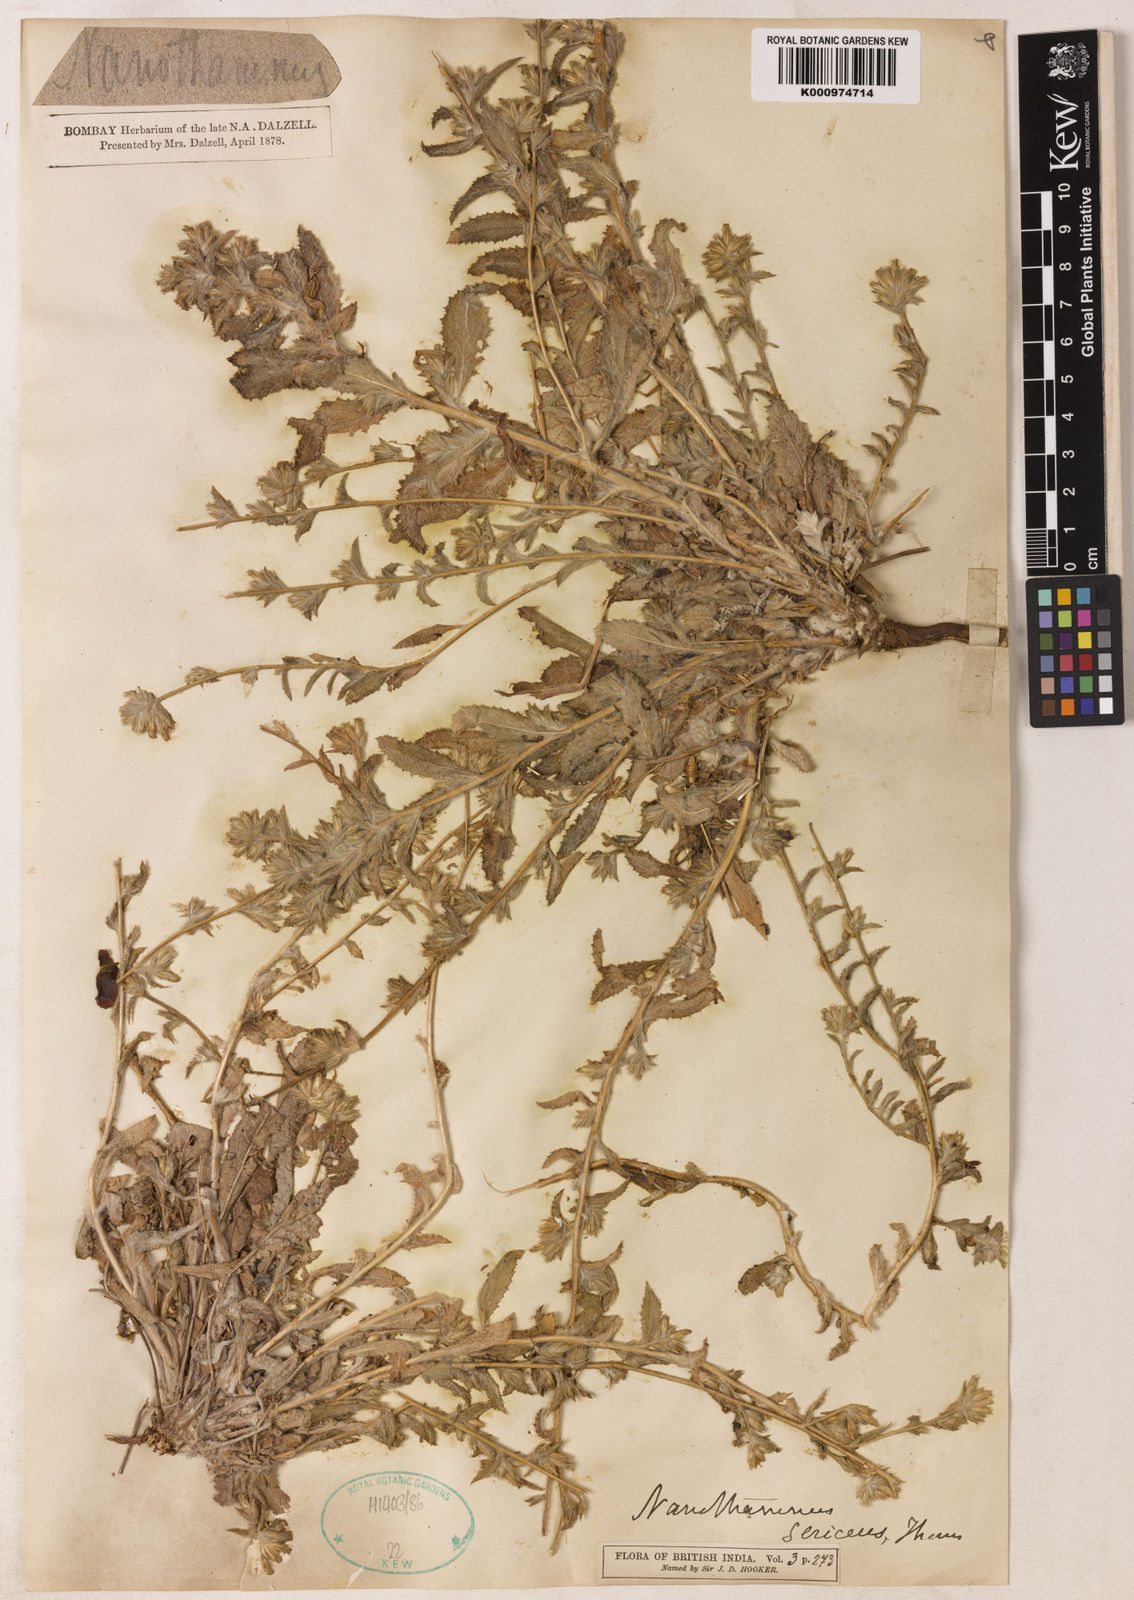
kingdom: Plantae
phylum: Tracheophyta
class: Magnoliopsida
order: Asterales
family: Asteraceae
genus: Nanothamnus
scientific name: Nanothamnus sericeus
